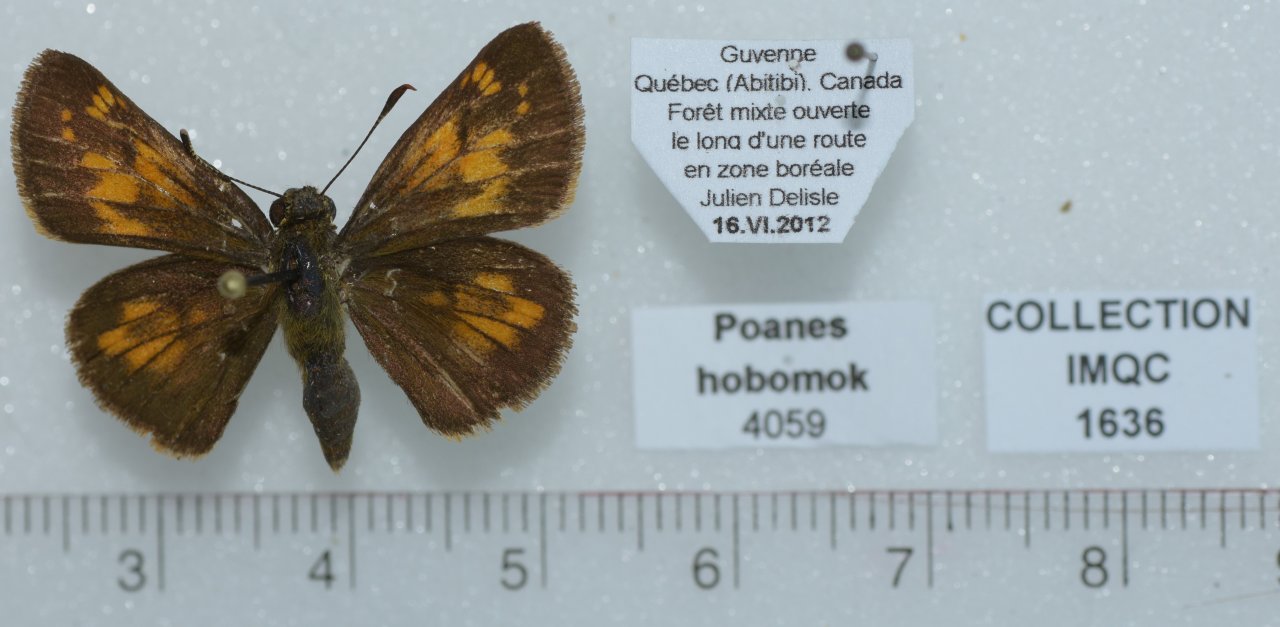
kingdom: Animalia
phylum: Arthropoda
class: Insecta
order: Lepidoptera
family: Hesperiidae
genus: Lon
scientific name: Lon hobomok
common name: Hobomok Skipper
